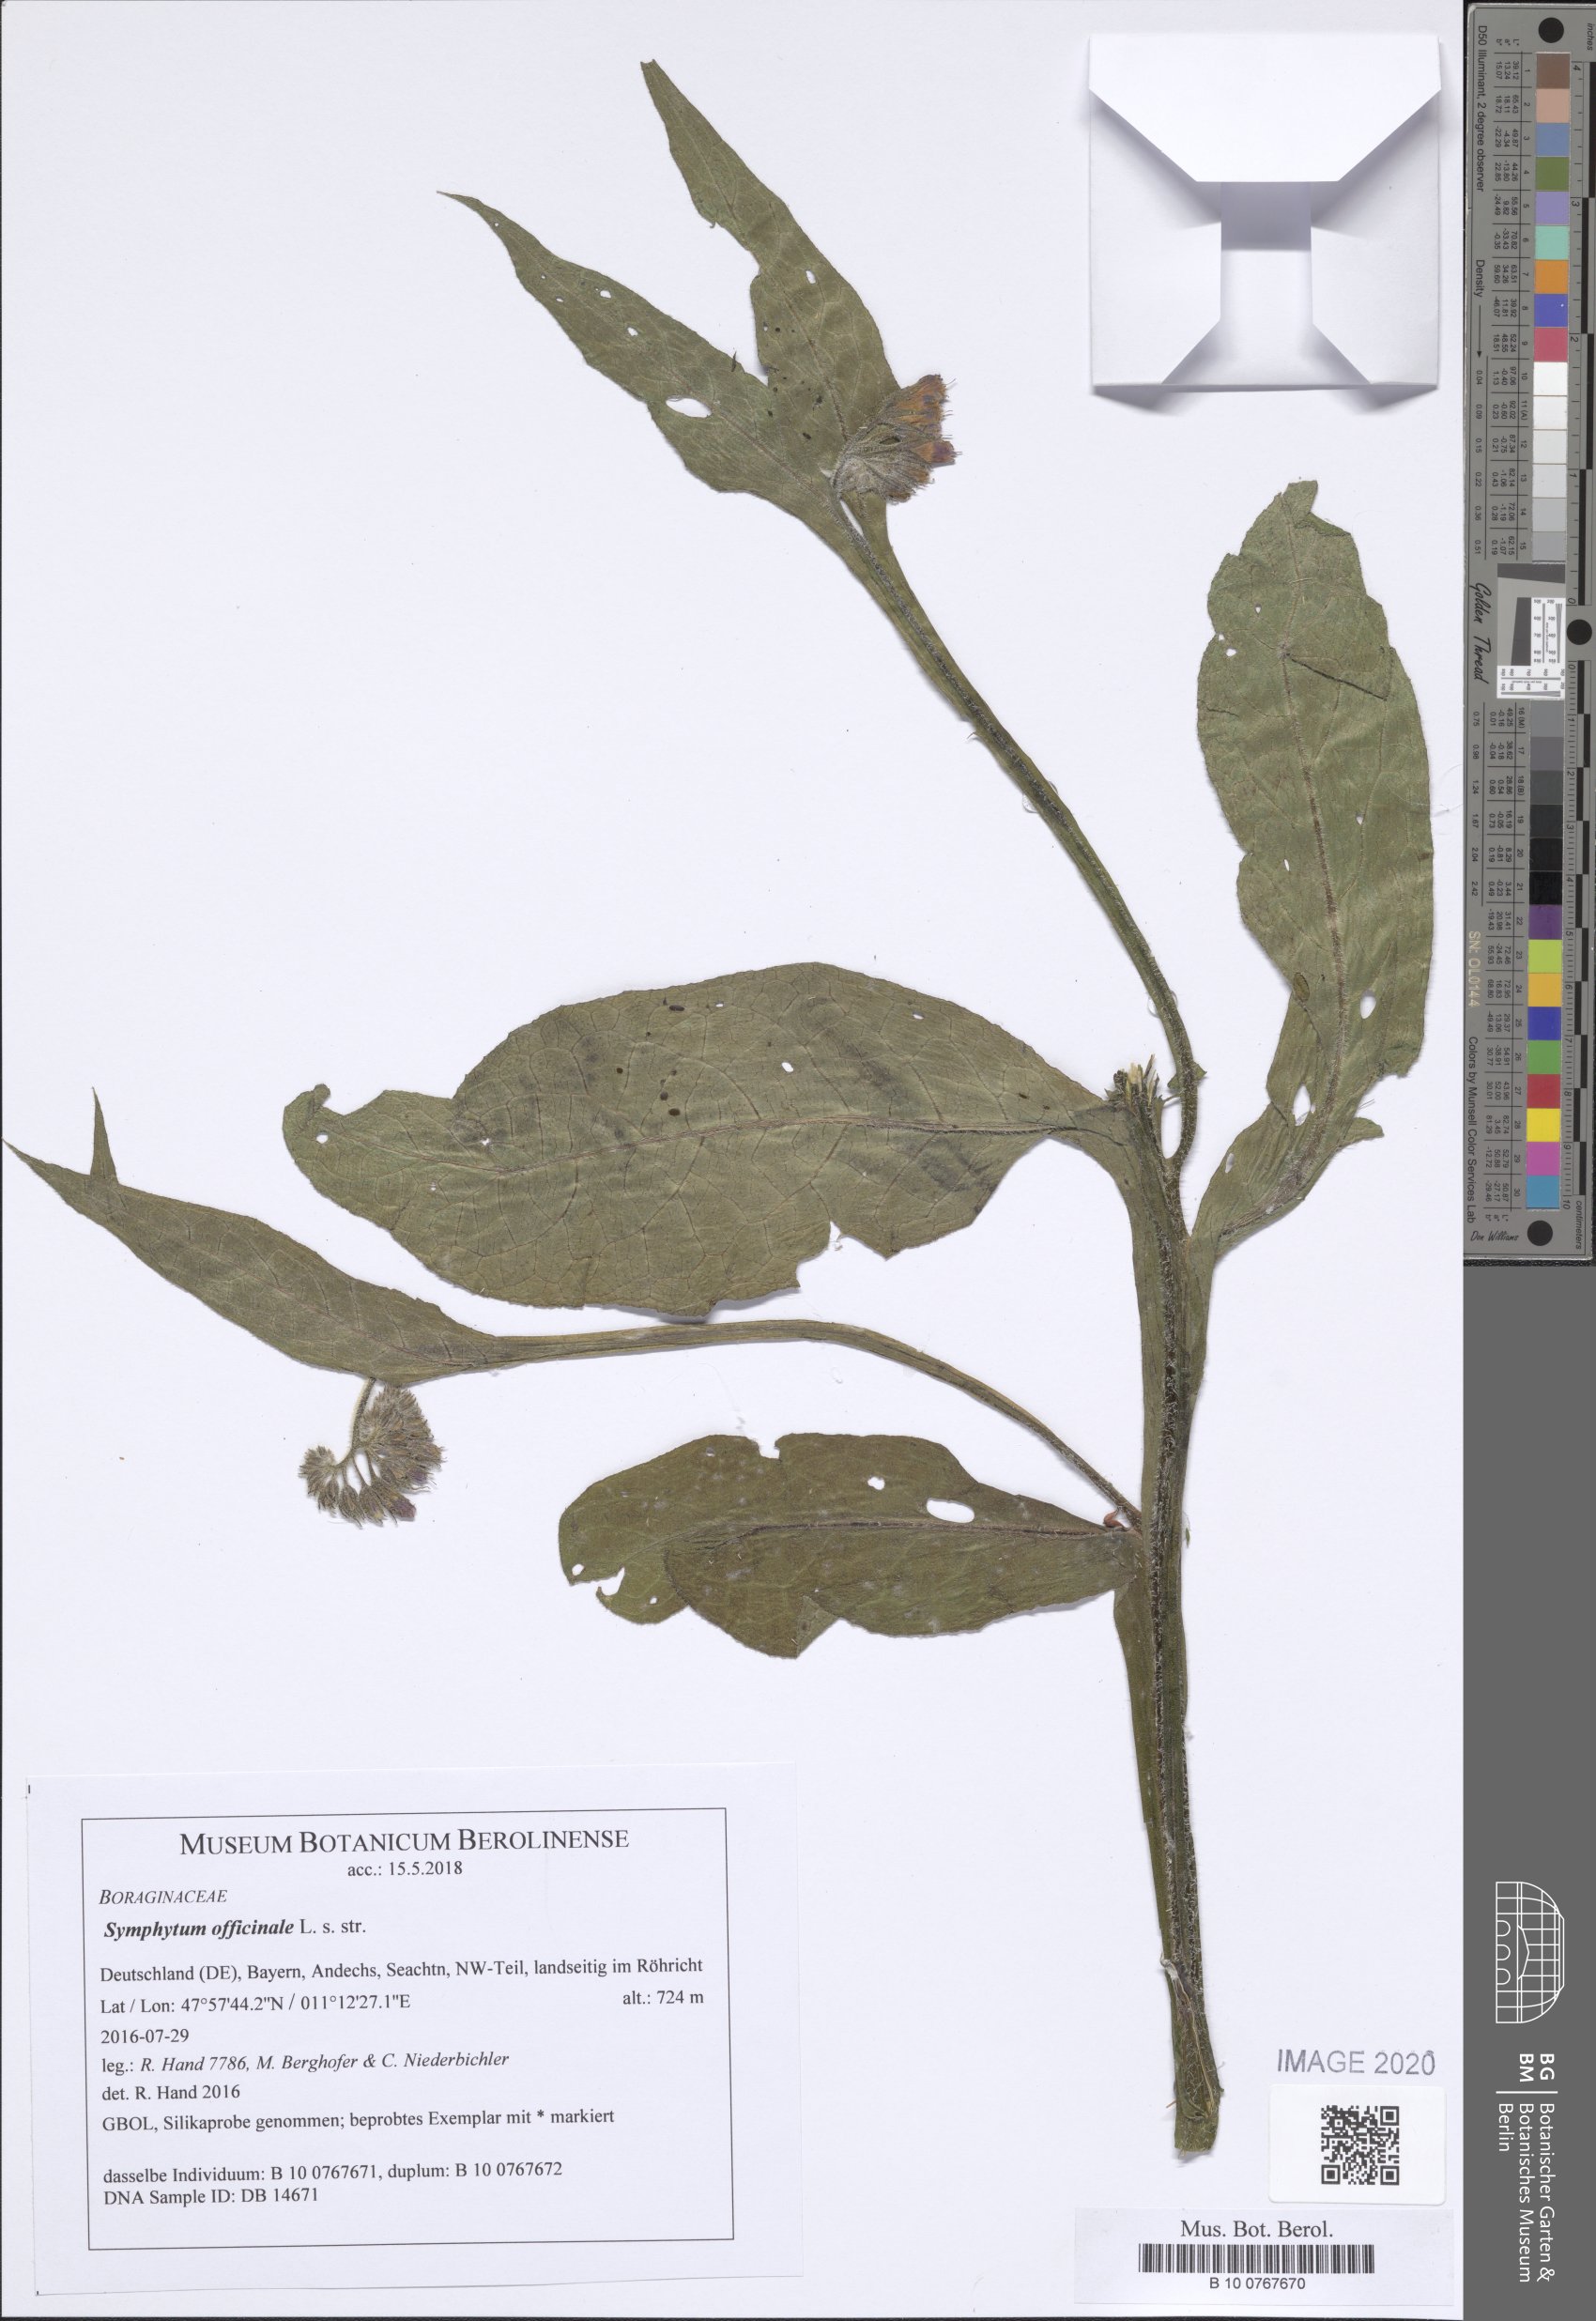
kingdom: Plantae
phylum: Tracheophyta
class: Magnoliopsida
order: Boraginales
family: Boraginaceae
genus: Symphytum
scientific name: Symphytum officinale
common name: Common comfrey
